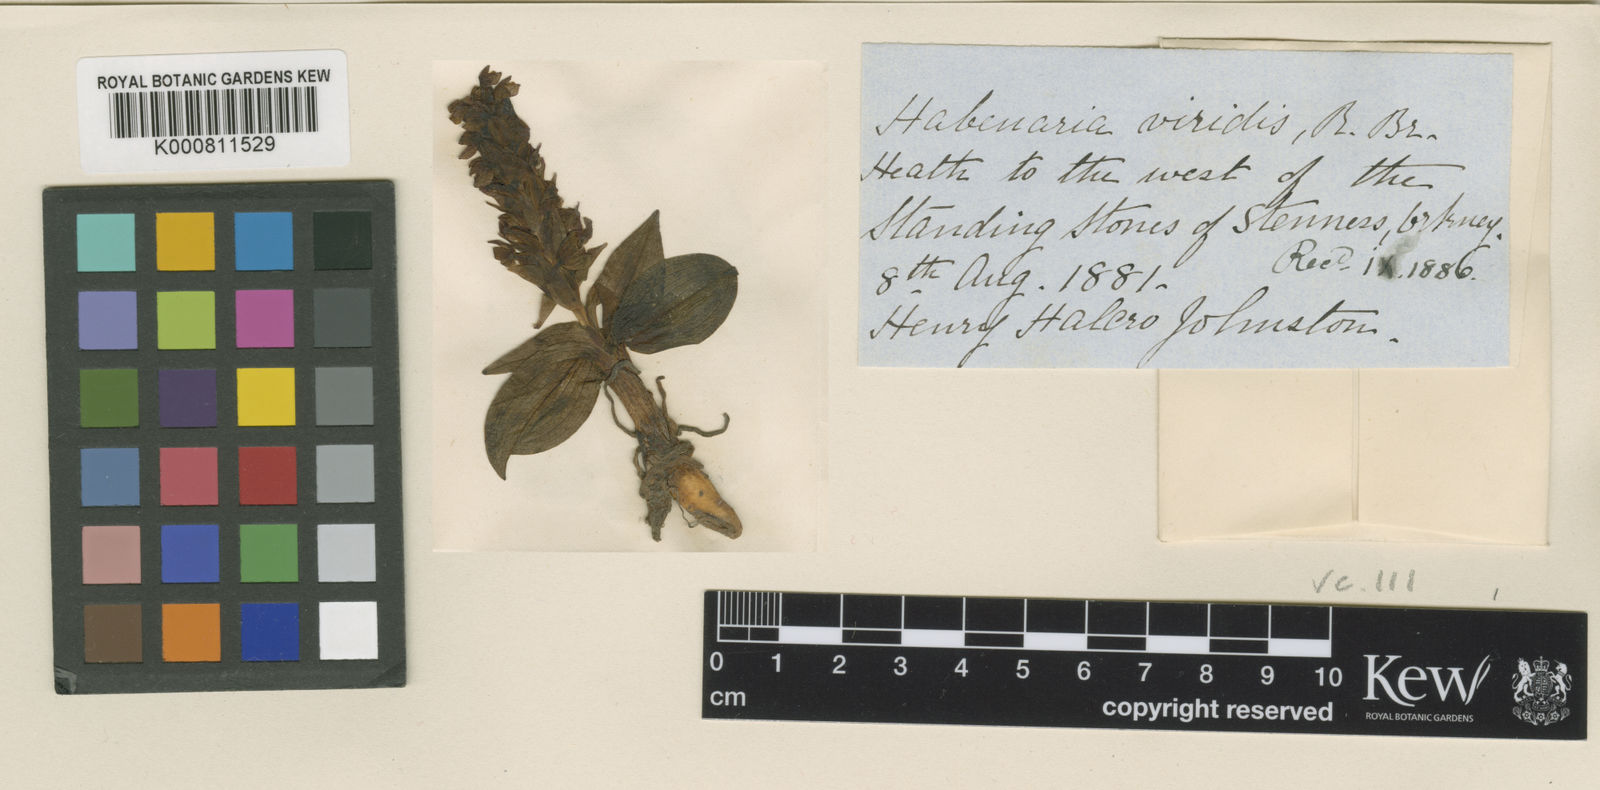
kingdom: Plantae
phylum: Tracheophyta
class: Liliopsida
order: Asparagales
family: Orchidaceae
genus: Dactylorhiza
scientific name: Dactylorhiza viridis
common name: Longbract frog orchid
